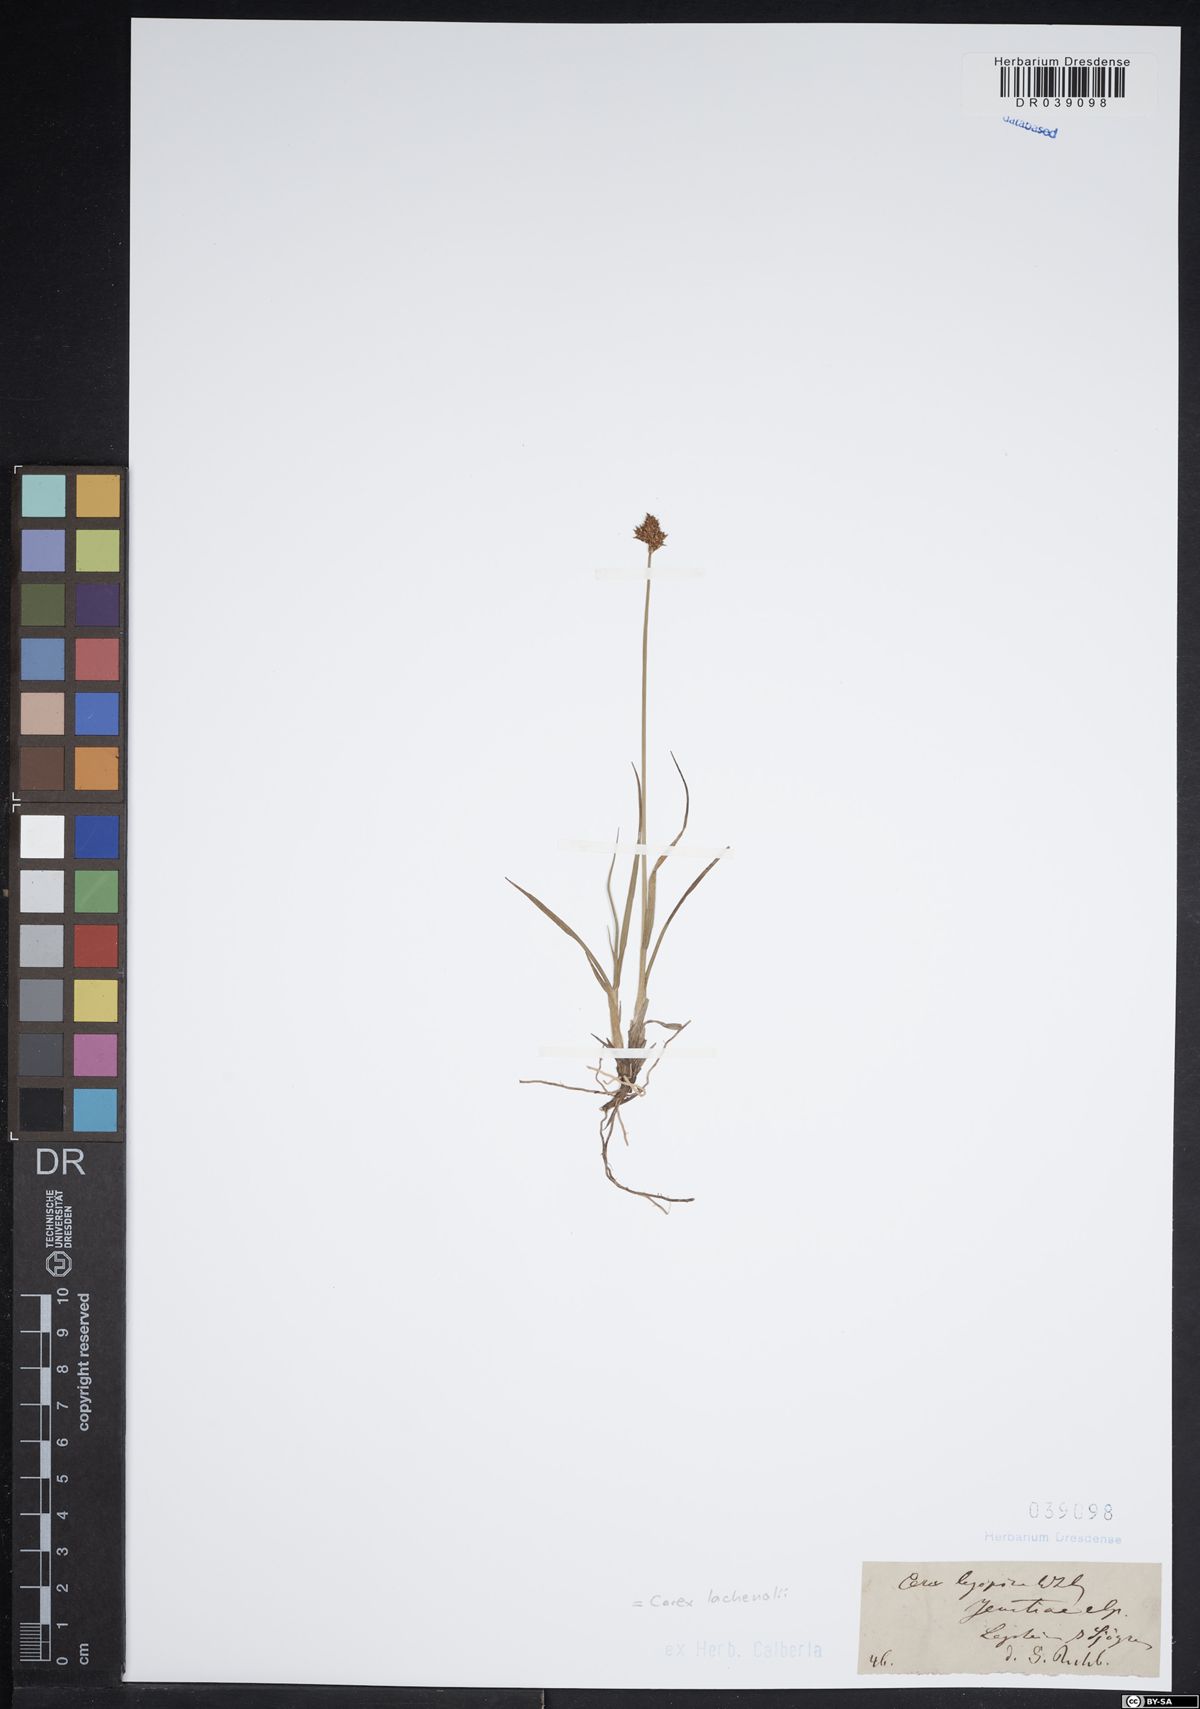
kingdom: Plantae
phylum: Tracheophyta
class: Liliopsida
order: Poales
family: Cyperaceae
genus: Carex
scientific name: Carex lachenalii
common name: Hare's-foot sedge
